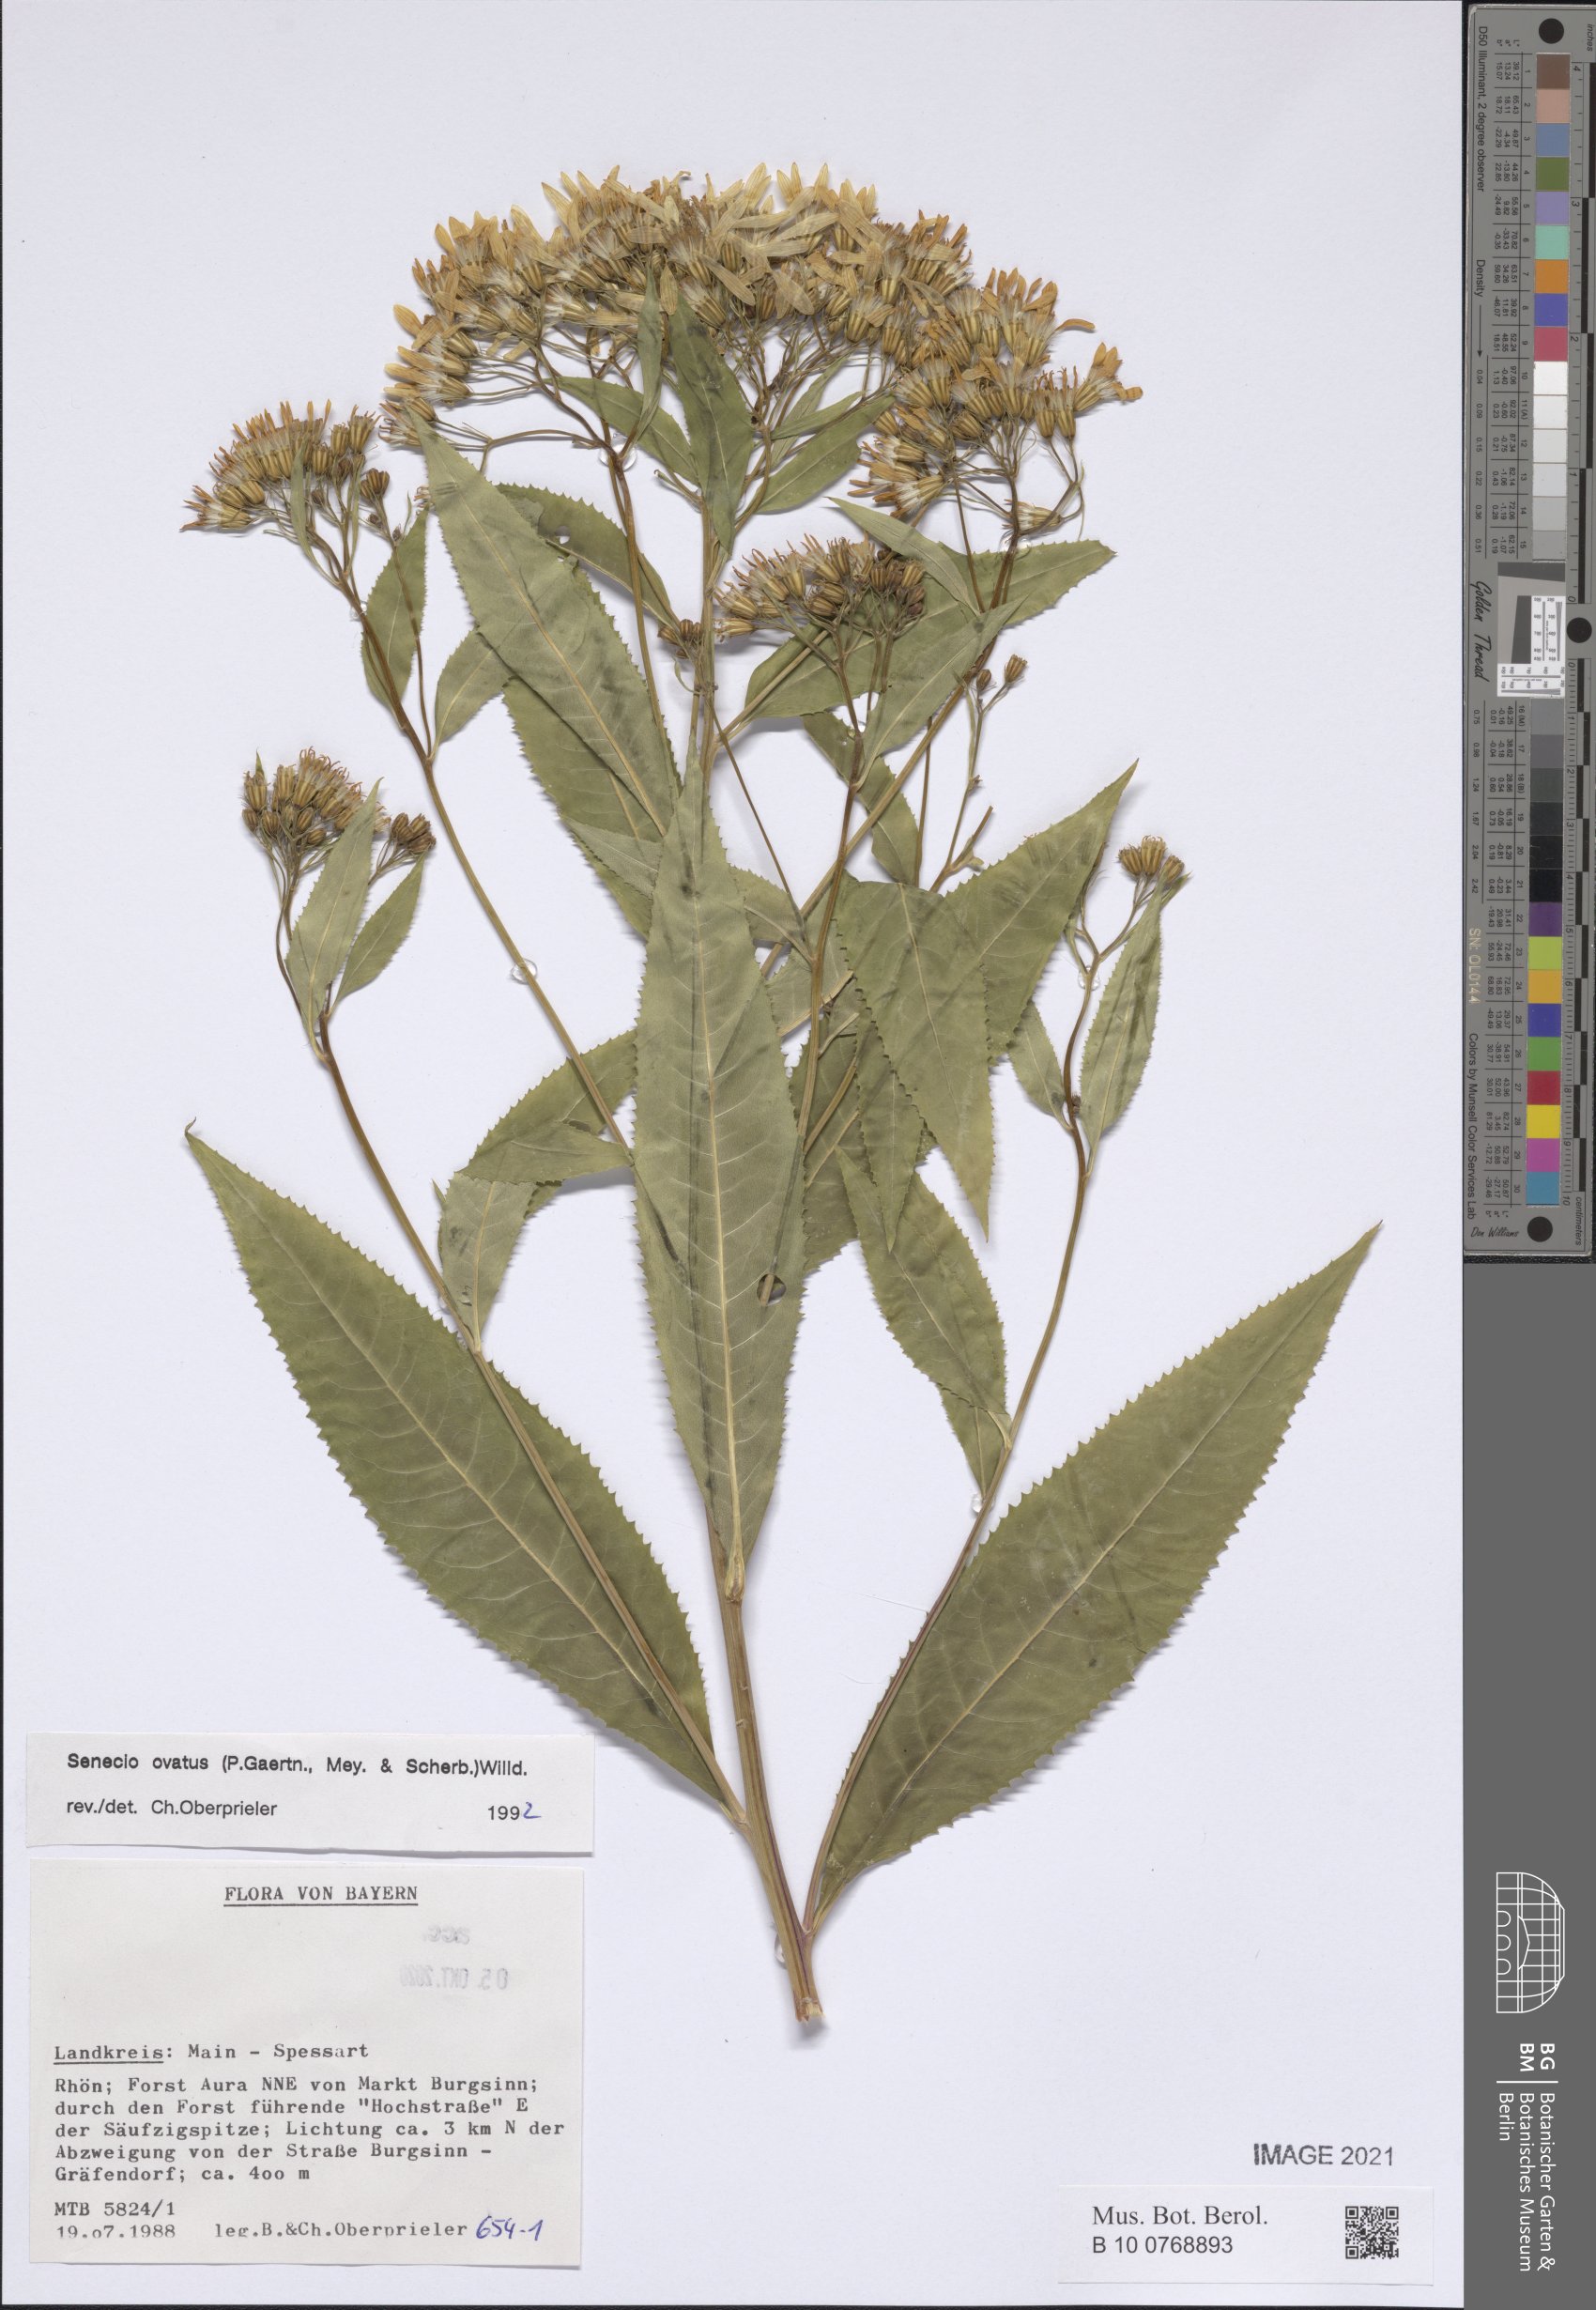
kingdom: Plantae
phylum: Tracheophyta
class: Magnoliopsida
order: Asterales
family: Asteraceae
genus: Senecio
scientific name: Senecio ovatus
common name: Wood ragwort
